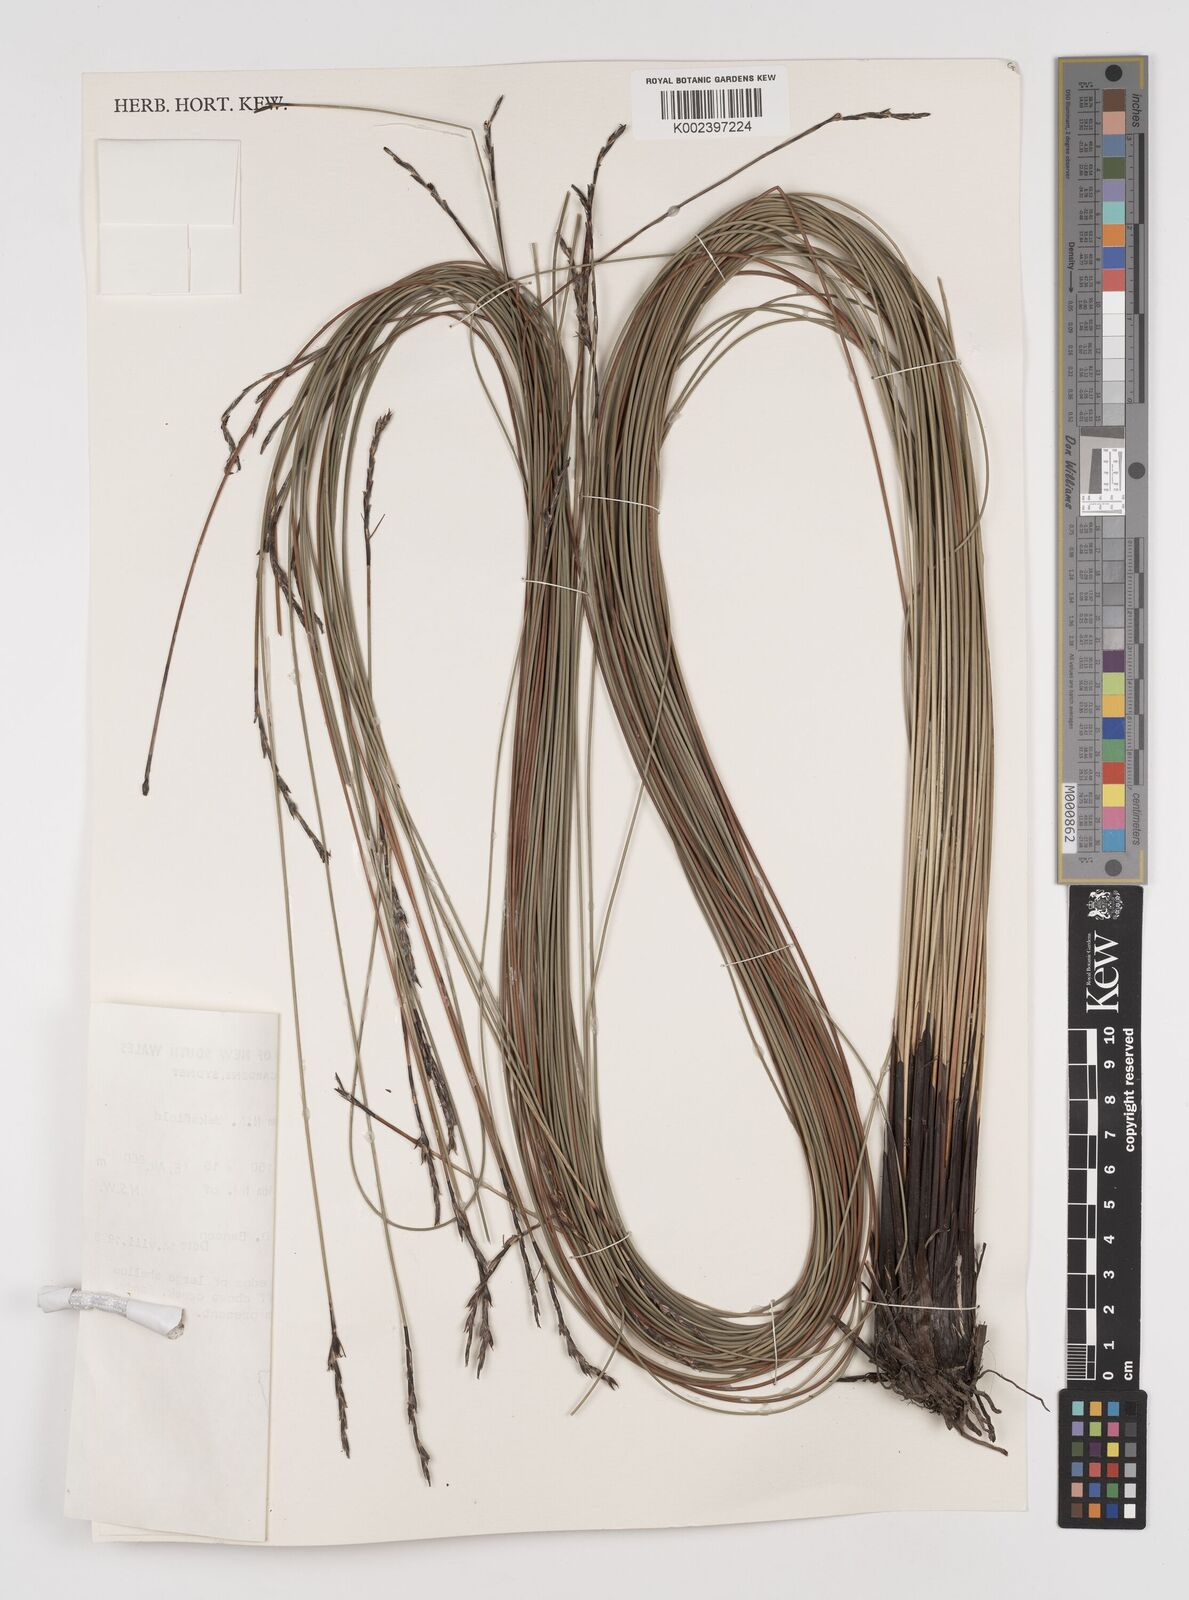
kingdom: Plantae
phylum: Tracheophyta
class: Liliopsida
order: Poales
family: Cyperaceae
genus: Lepidosperma
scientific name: Lepidosperma urophorum
